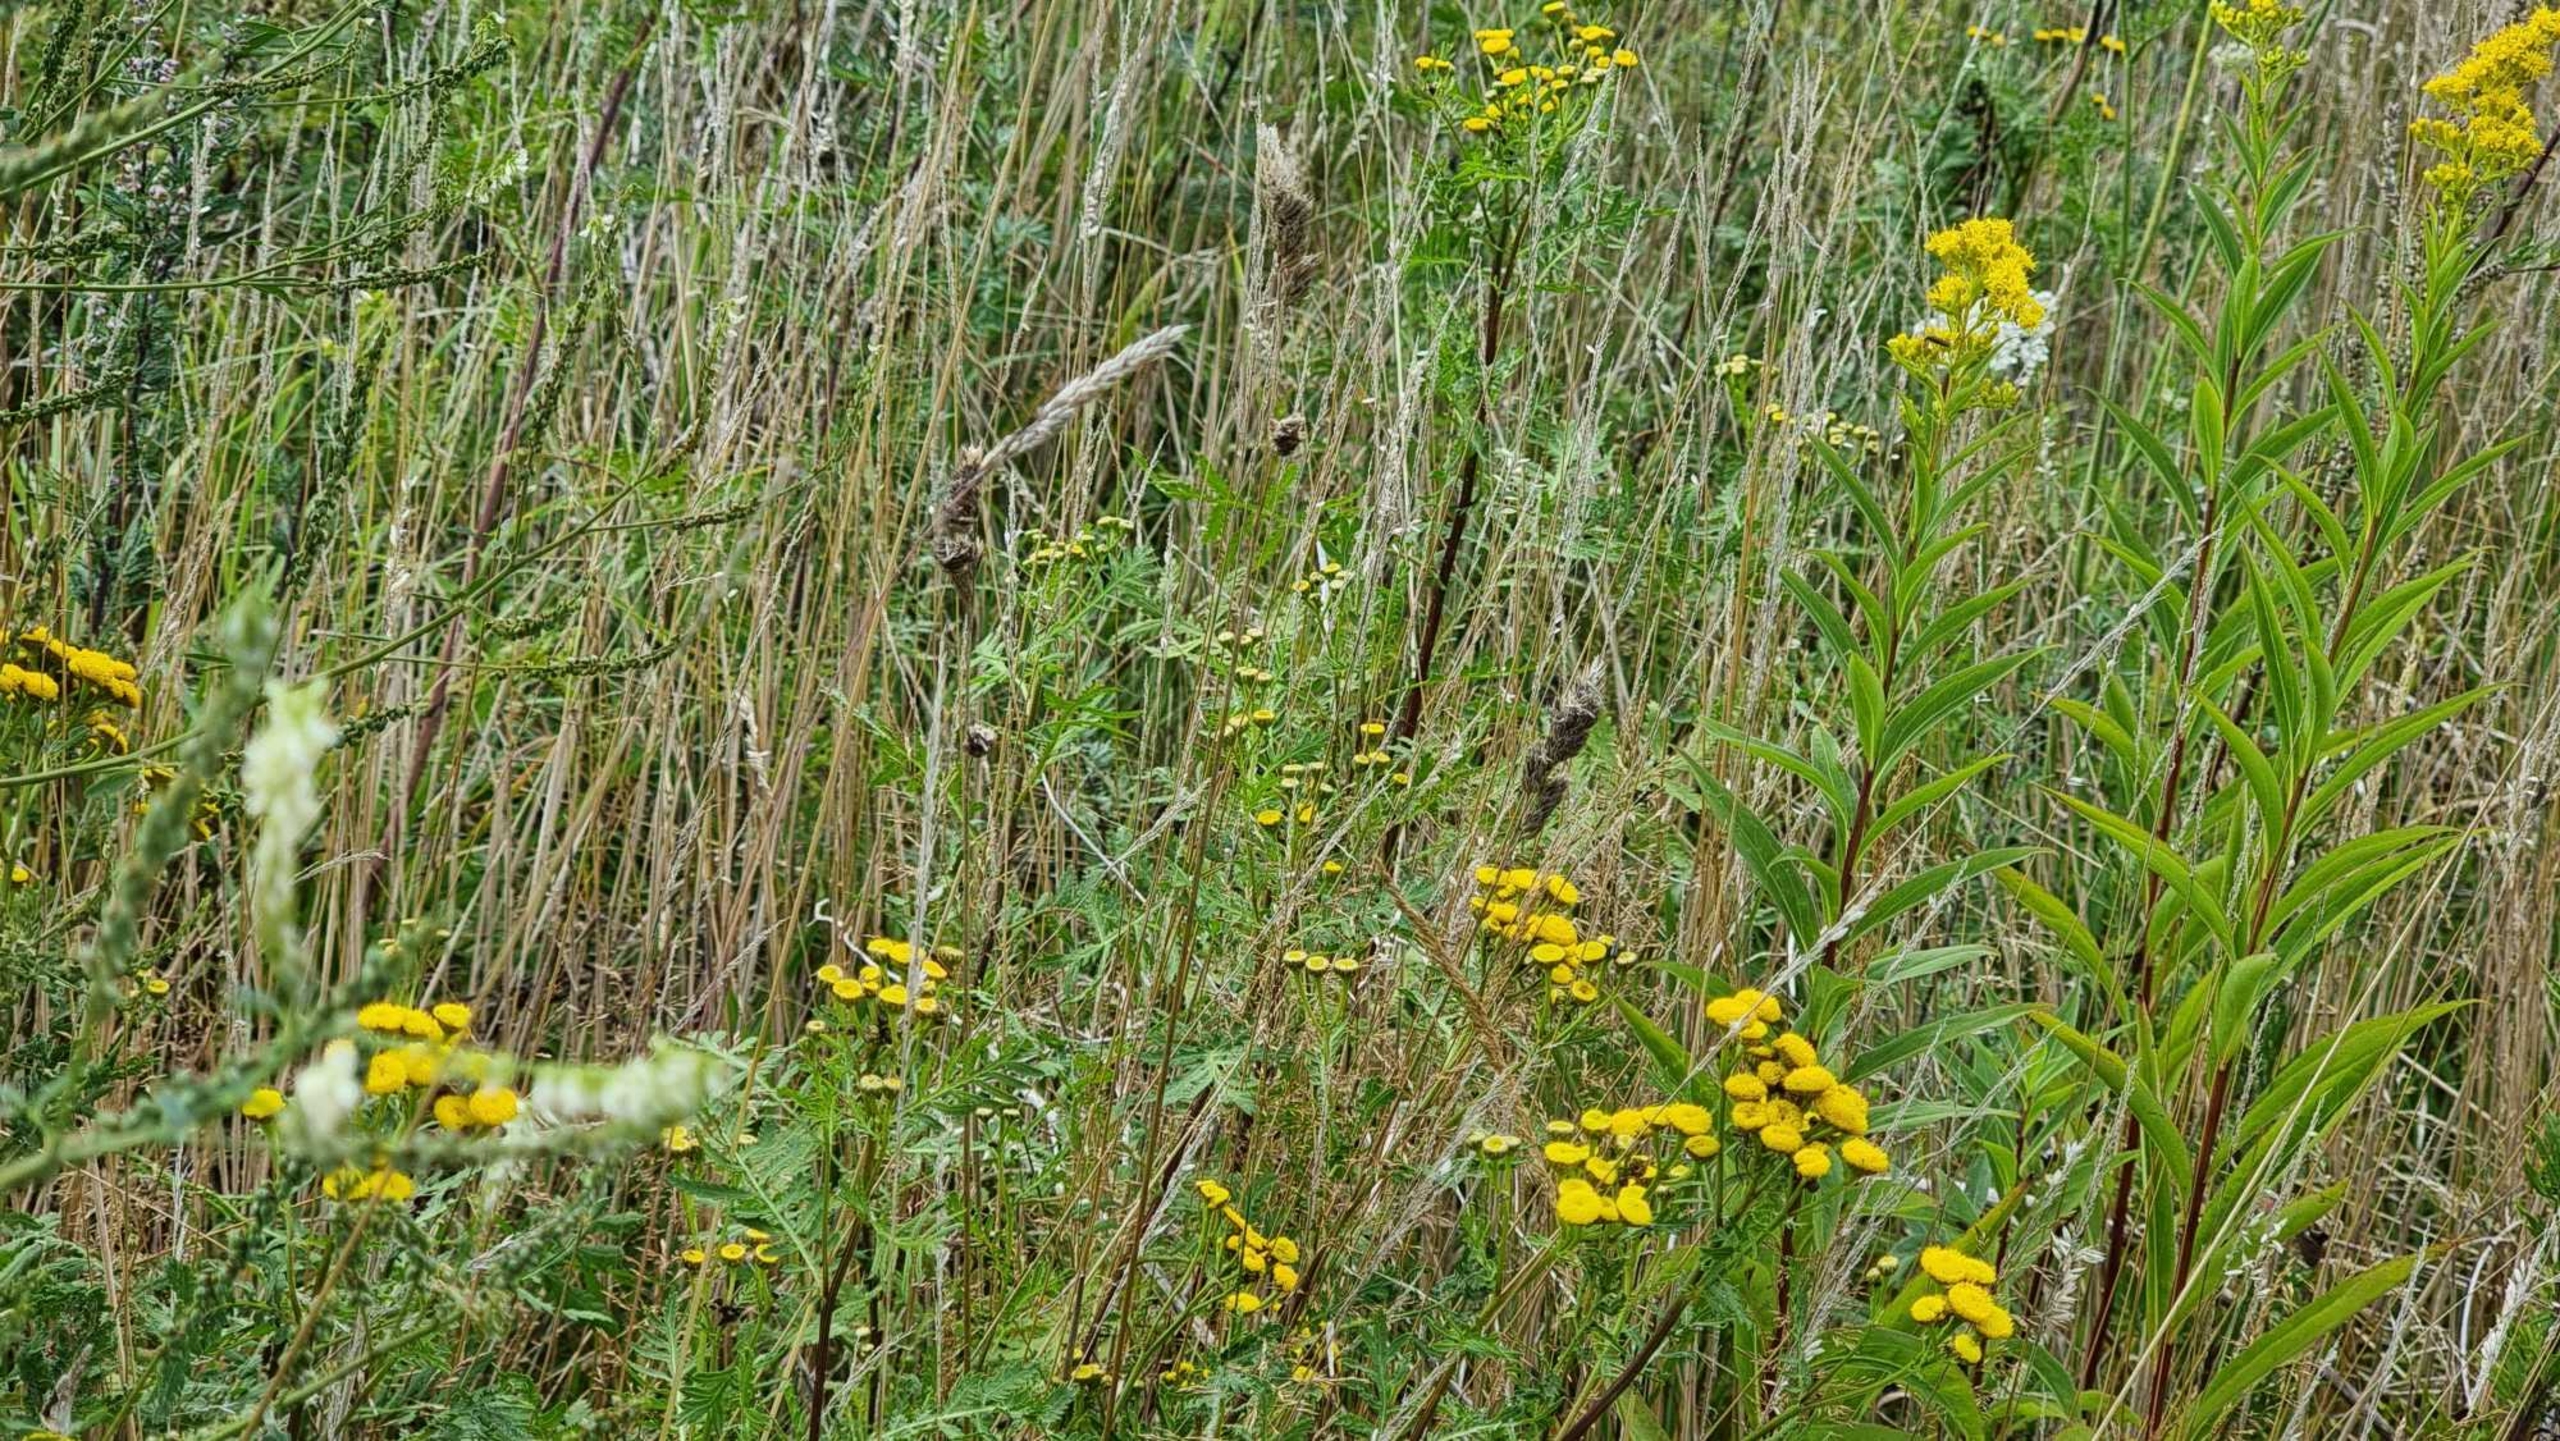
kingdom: Plantae
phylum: Tracheophyta
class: Magnoliopsida
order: Asterales
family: Asteraceae
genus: Tanacetum
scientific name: Tanacetum vulgare
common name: Rejnfan
